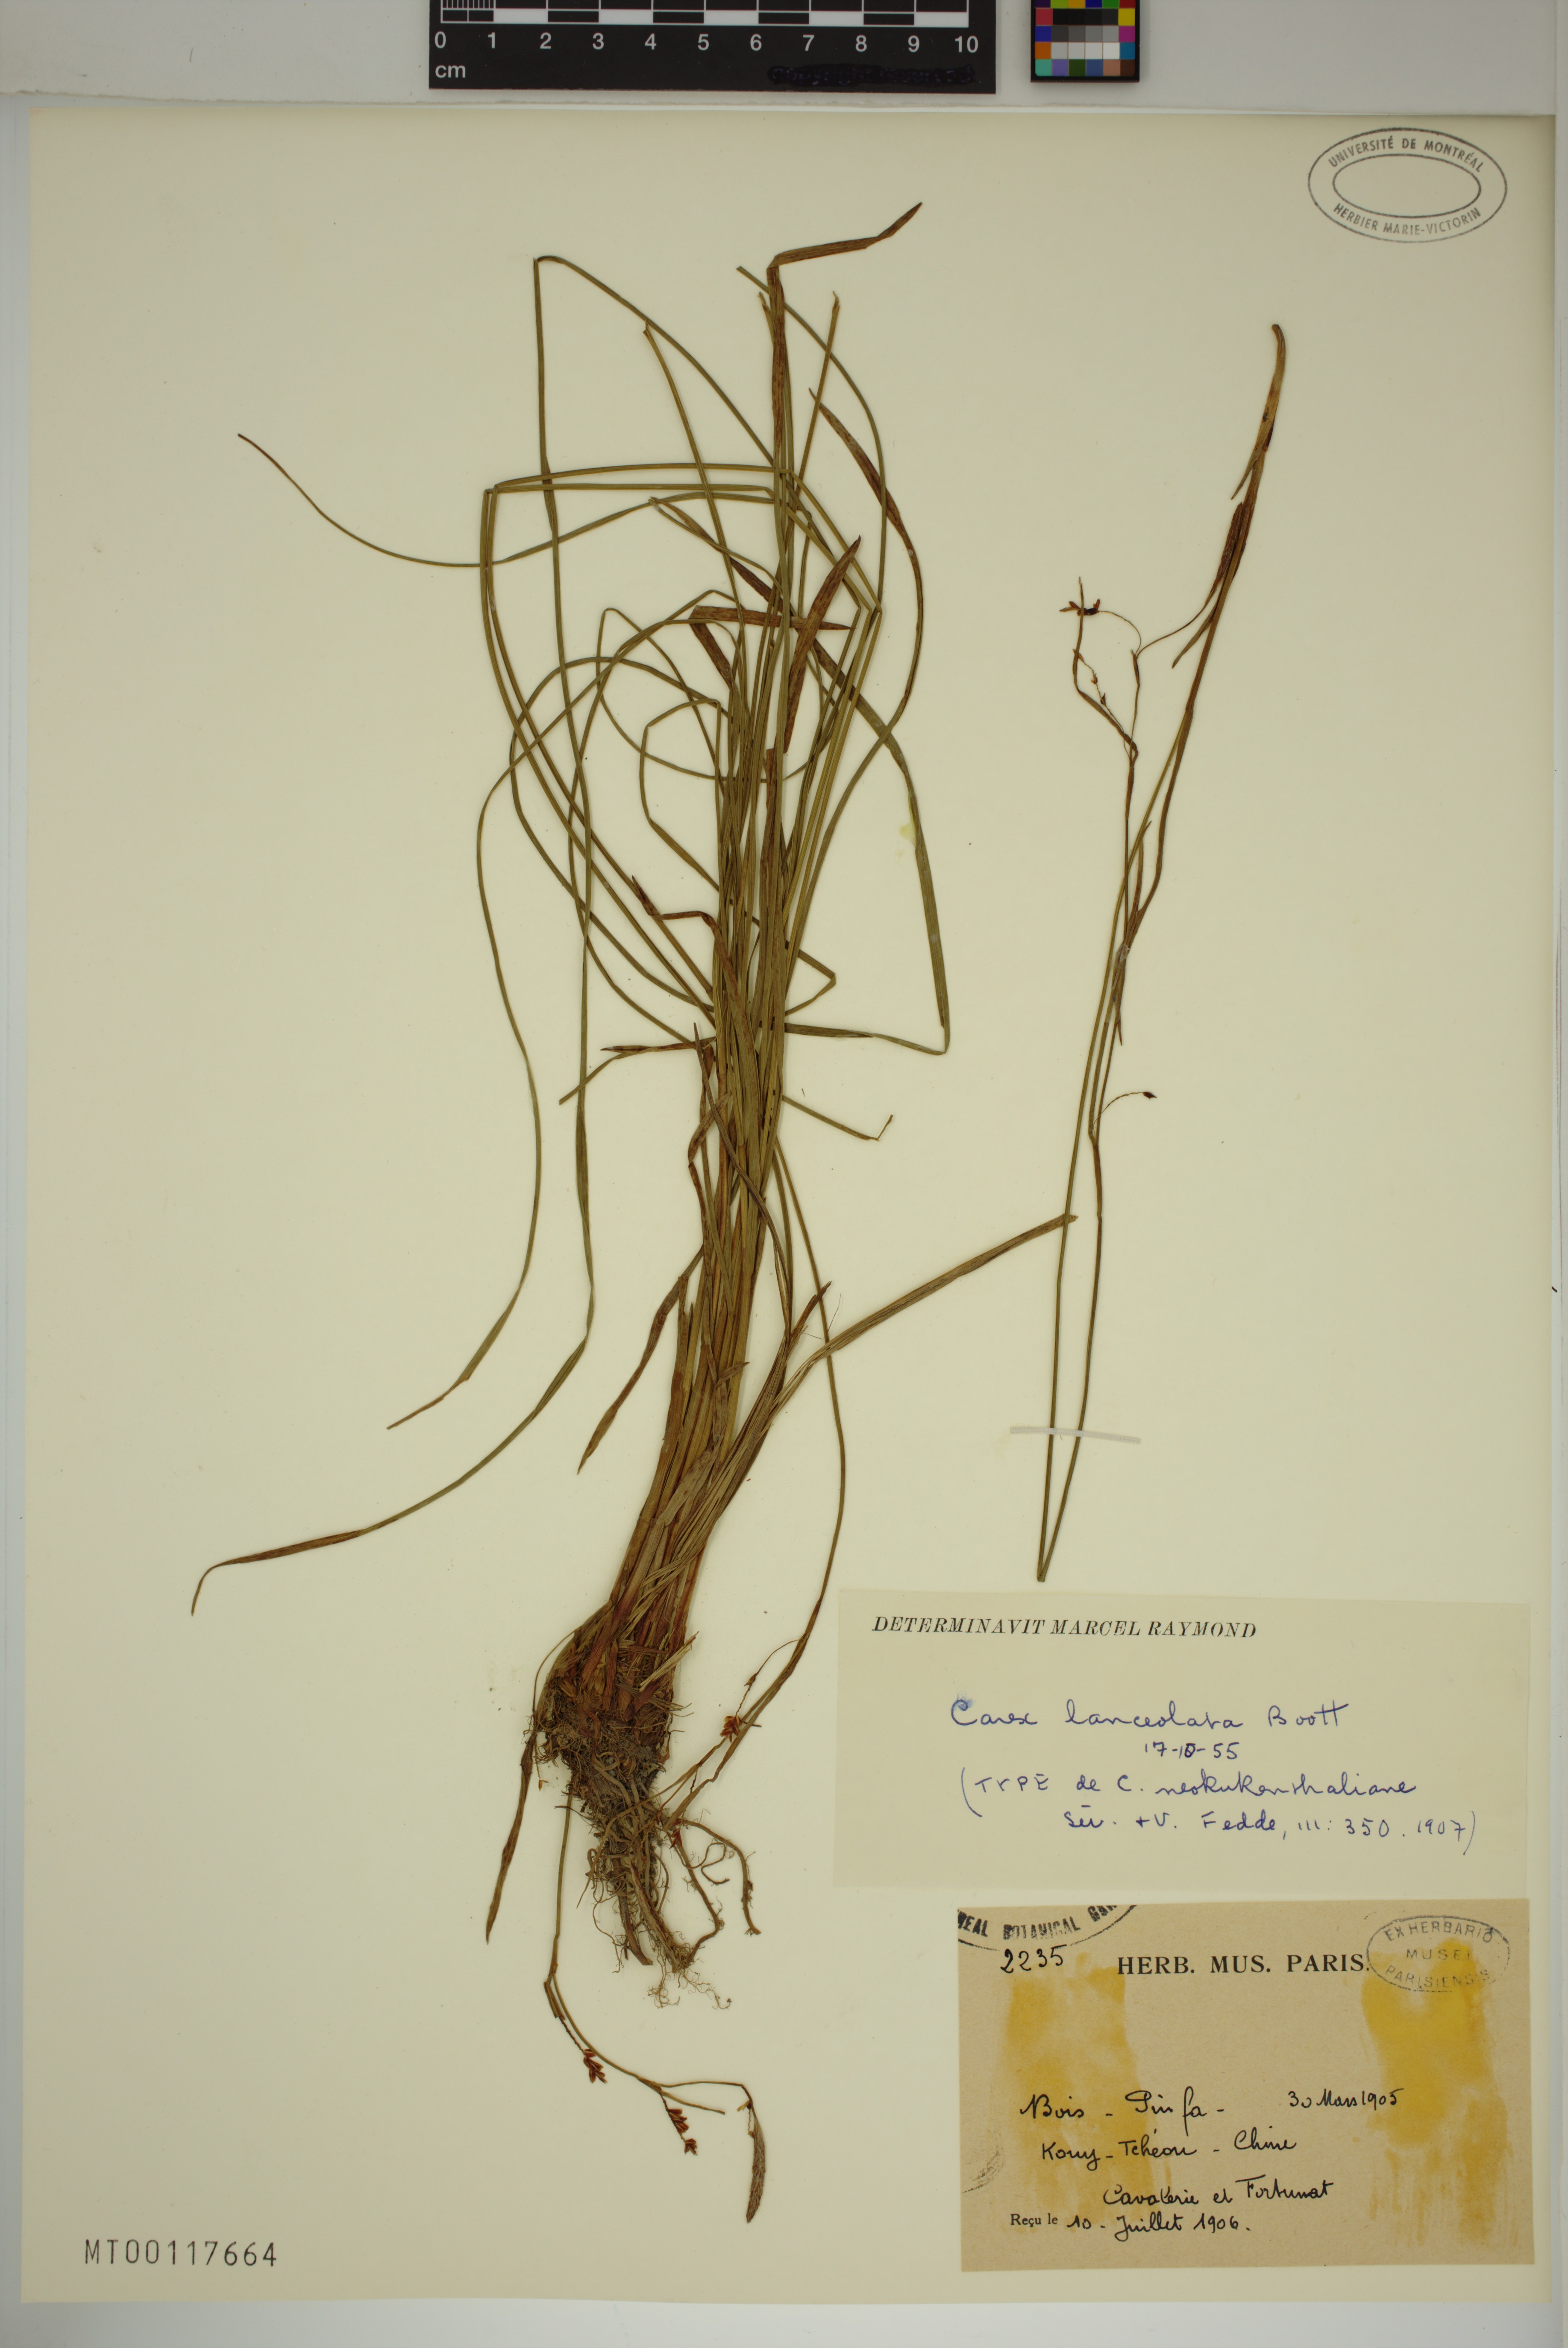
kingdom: Plantae
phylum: Tracheophyta
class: Liliopsida
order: Poales
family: Cyperaceae
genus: Carex
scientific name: Carex lanceolata
